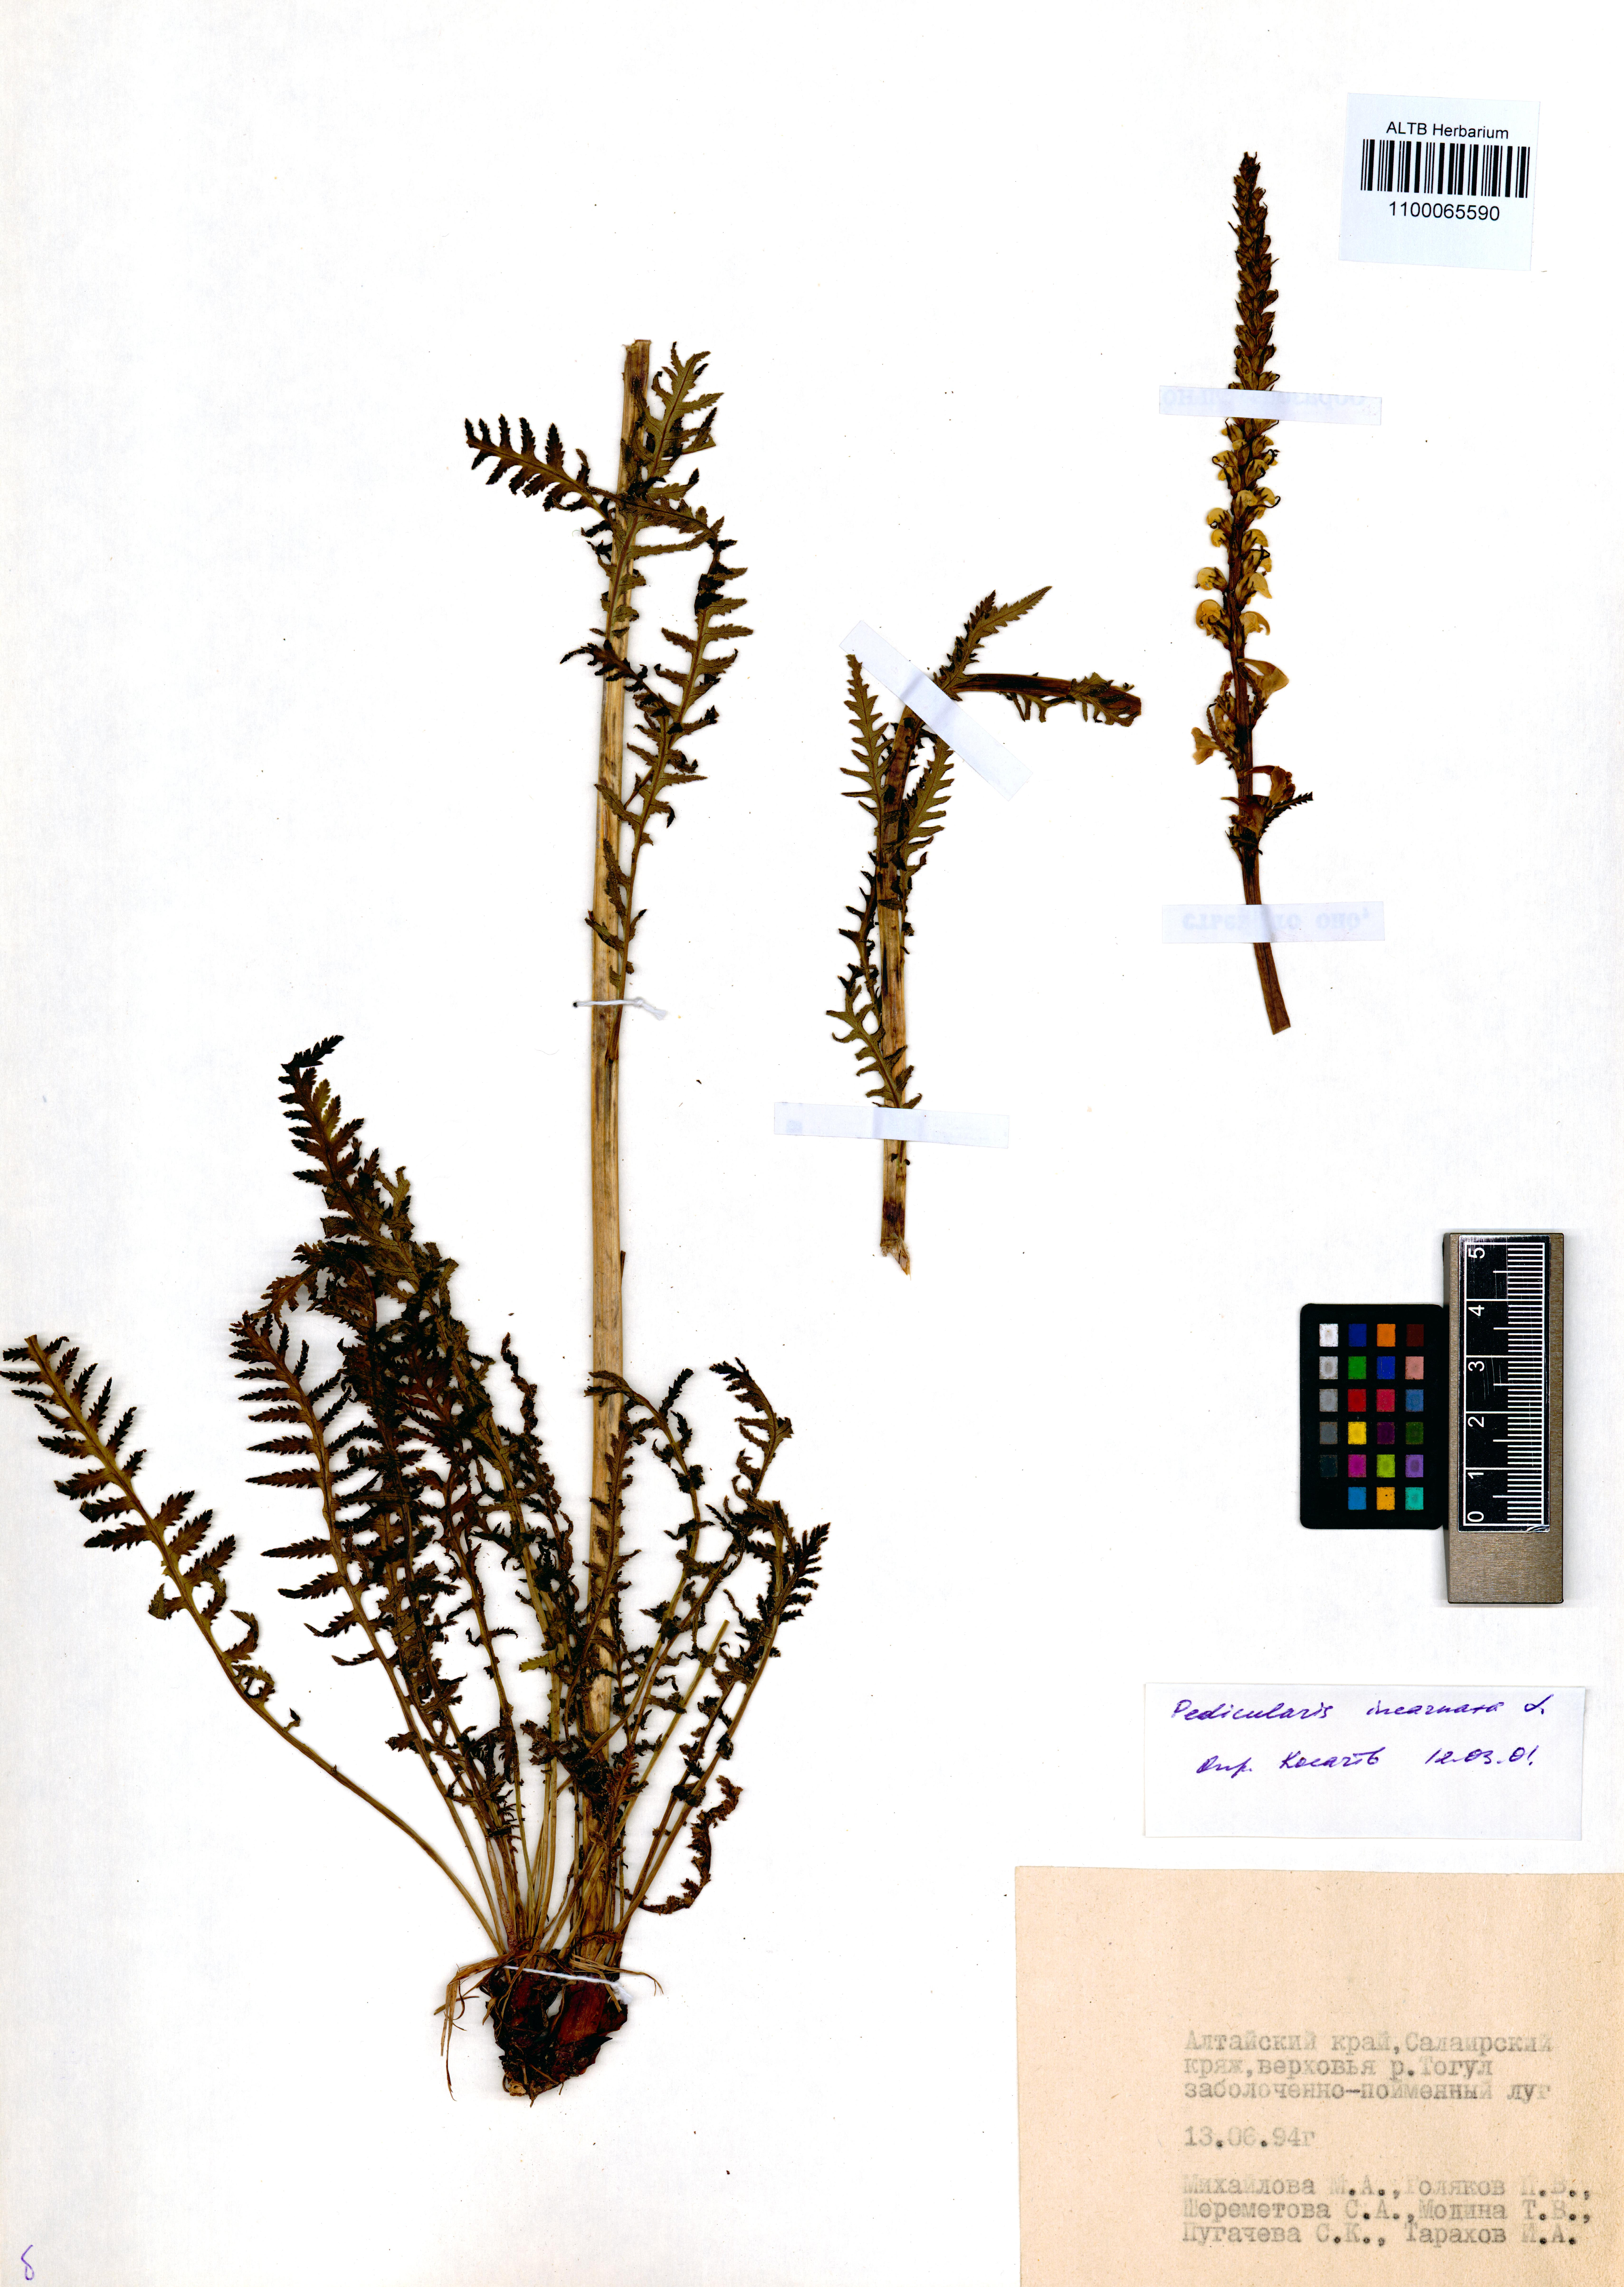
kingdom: Plantae
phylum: Tracheophyta
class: Magnoliopsida
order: Lamiales
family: Orobanchaceae
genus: Pedicularis
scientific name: Pedicularis incarnata
